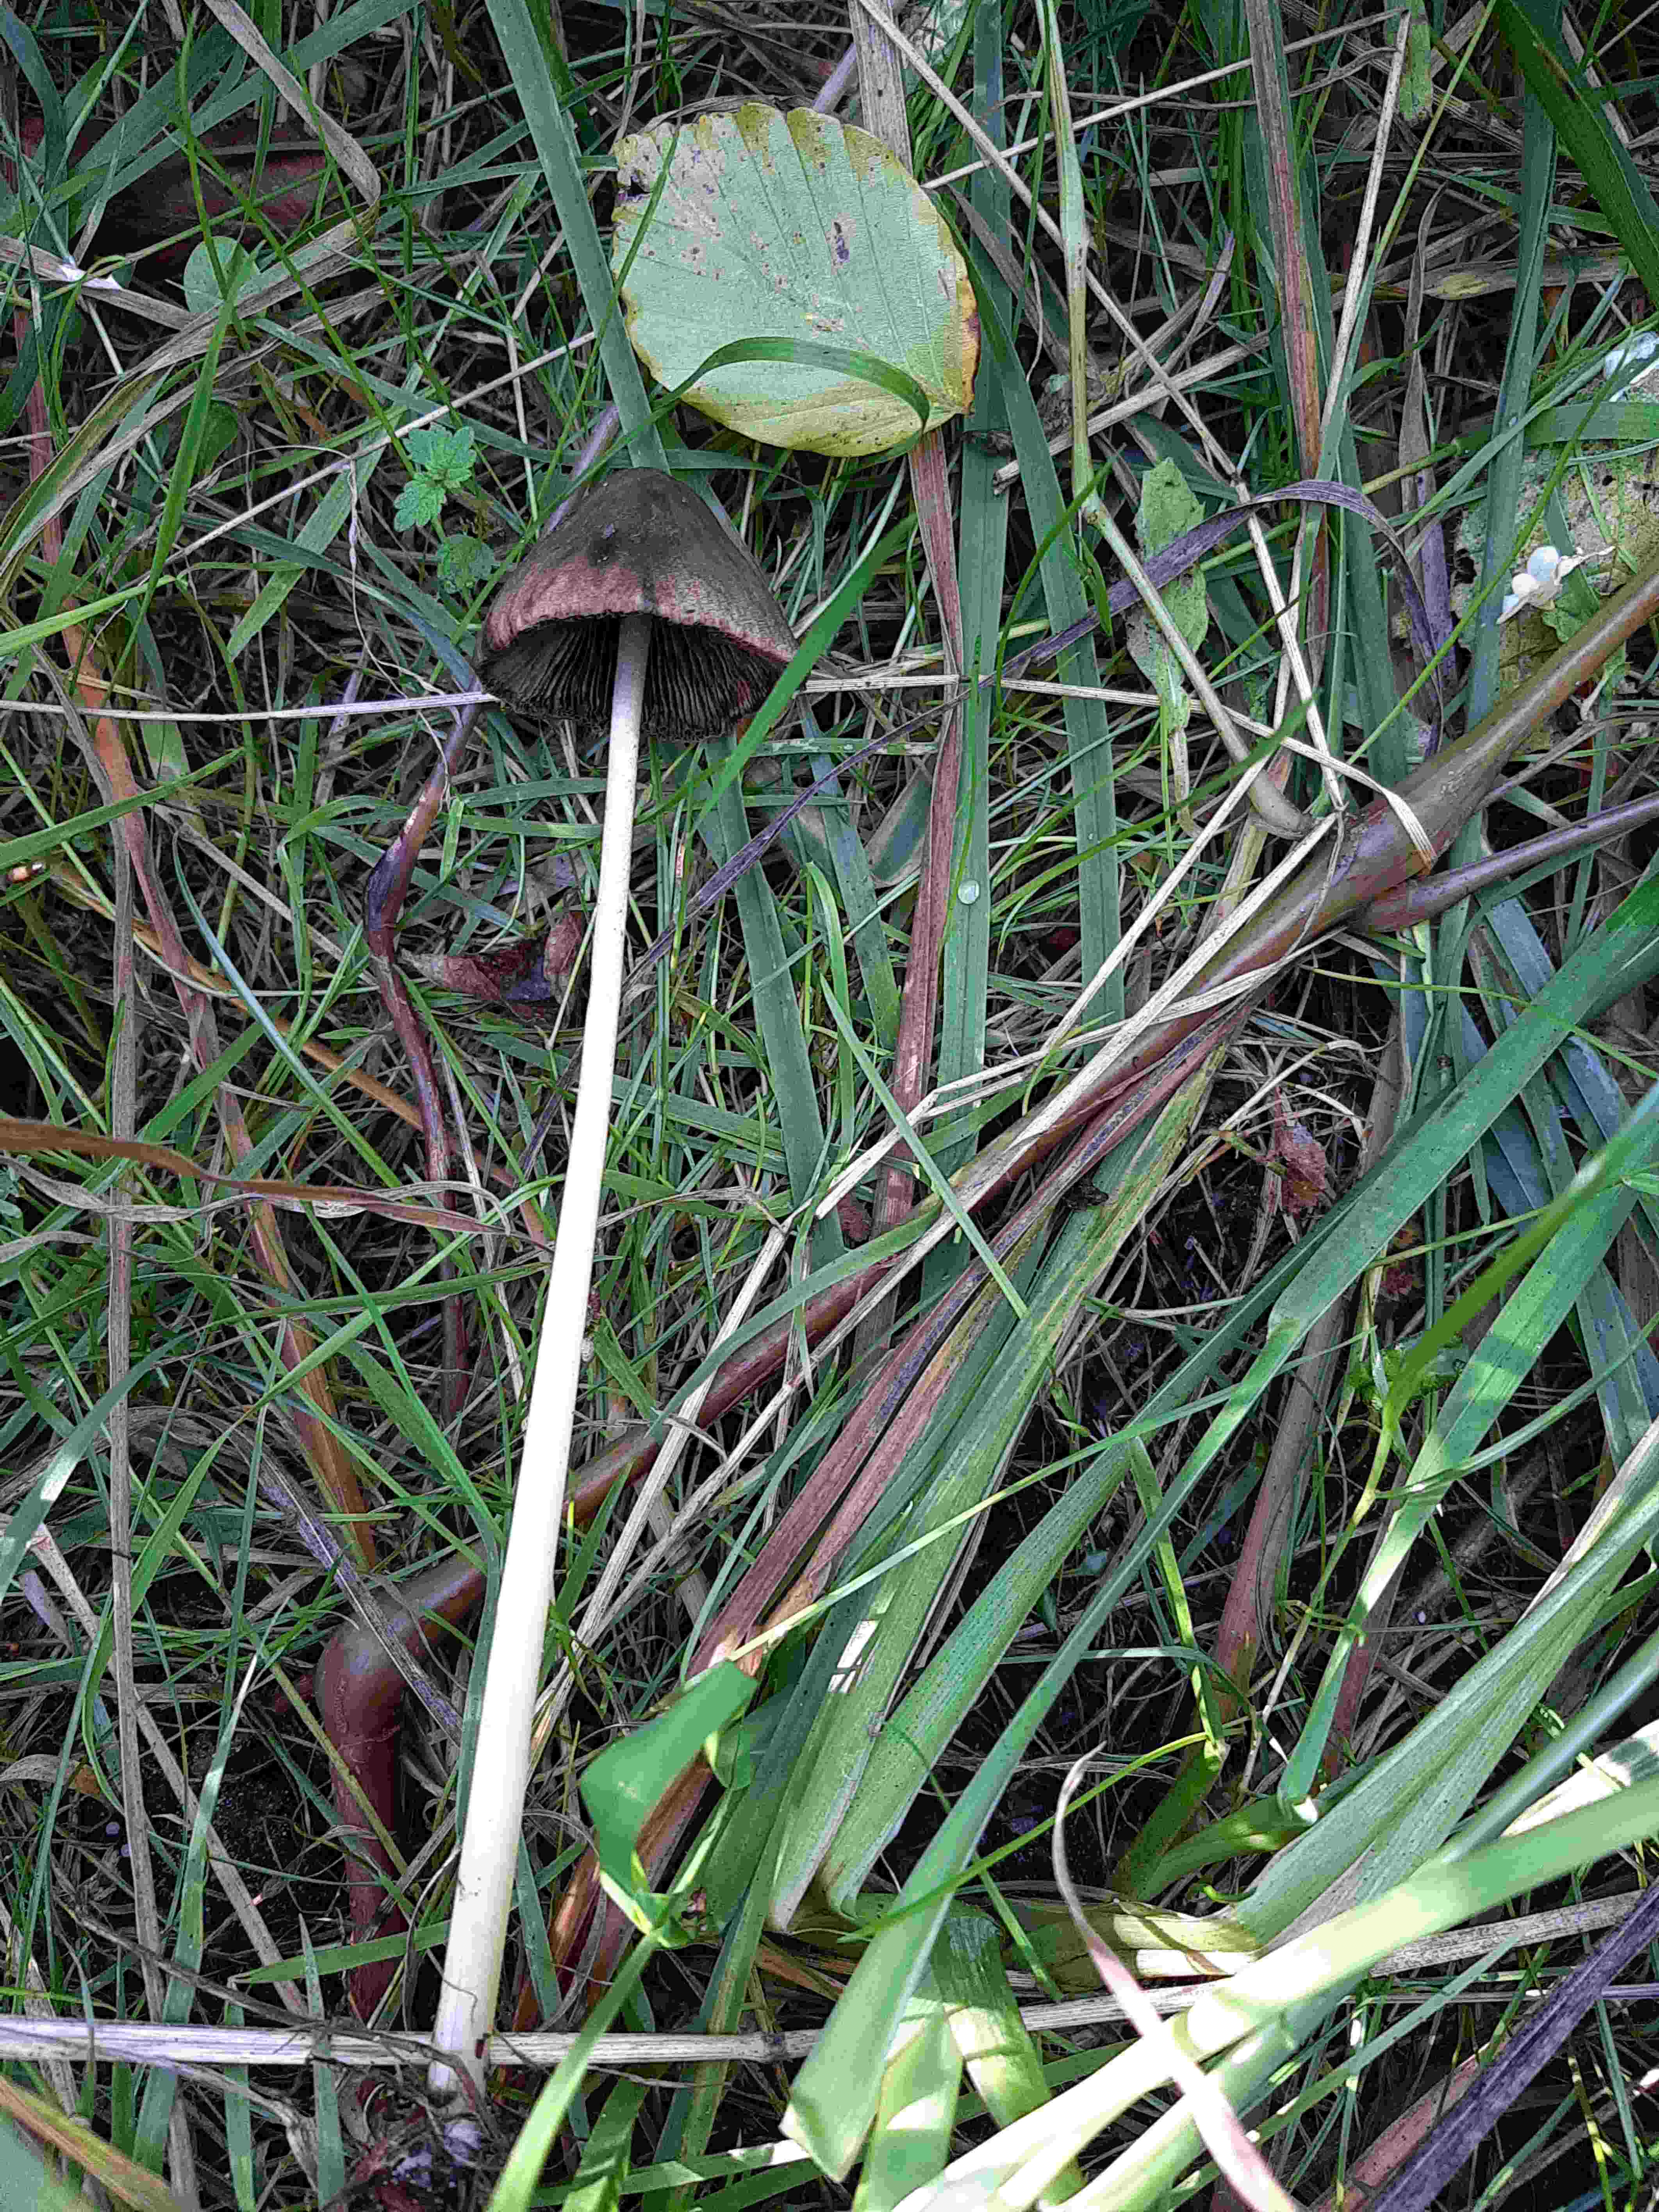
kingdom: Fungi
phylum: Basidiomycota
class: Agaricomycetes
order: Agaricales
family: Psathyrellaceae
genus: Parasola
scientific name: Parasola conopilea
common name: kegle-hjulhat
